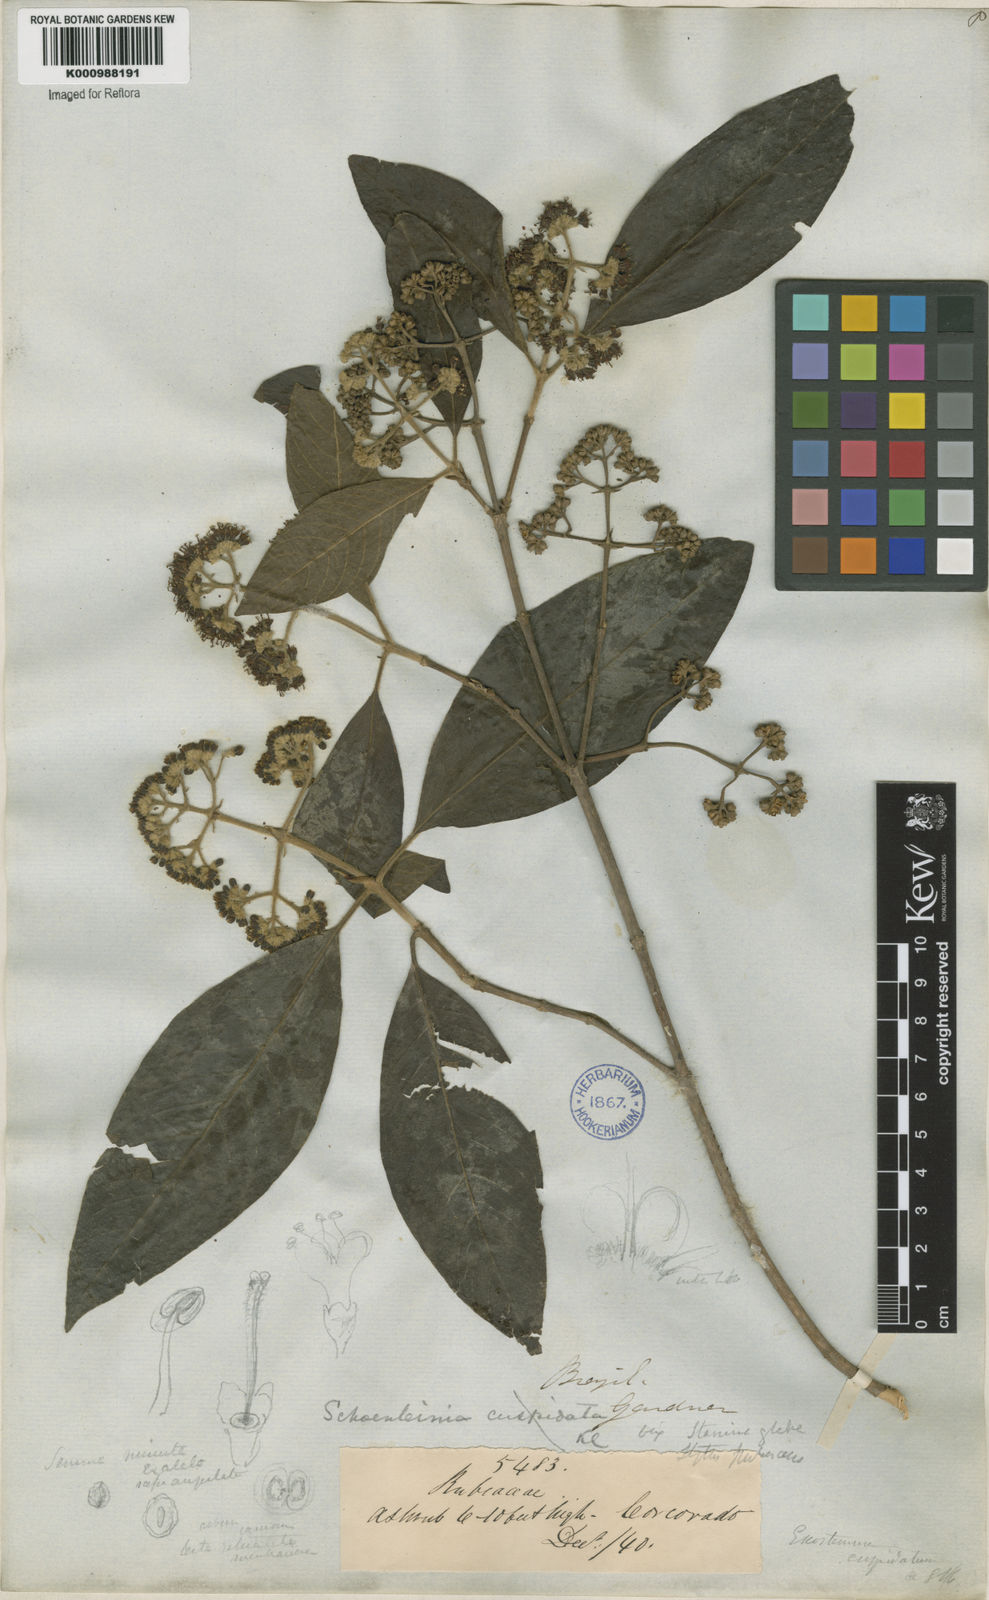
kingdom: Plantae
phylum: Tracheophyta
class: Magnoliopsida
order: Gentianales
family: Rubiaceae
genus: Bathysa
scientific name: Bathysa
